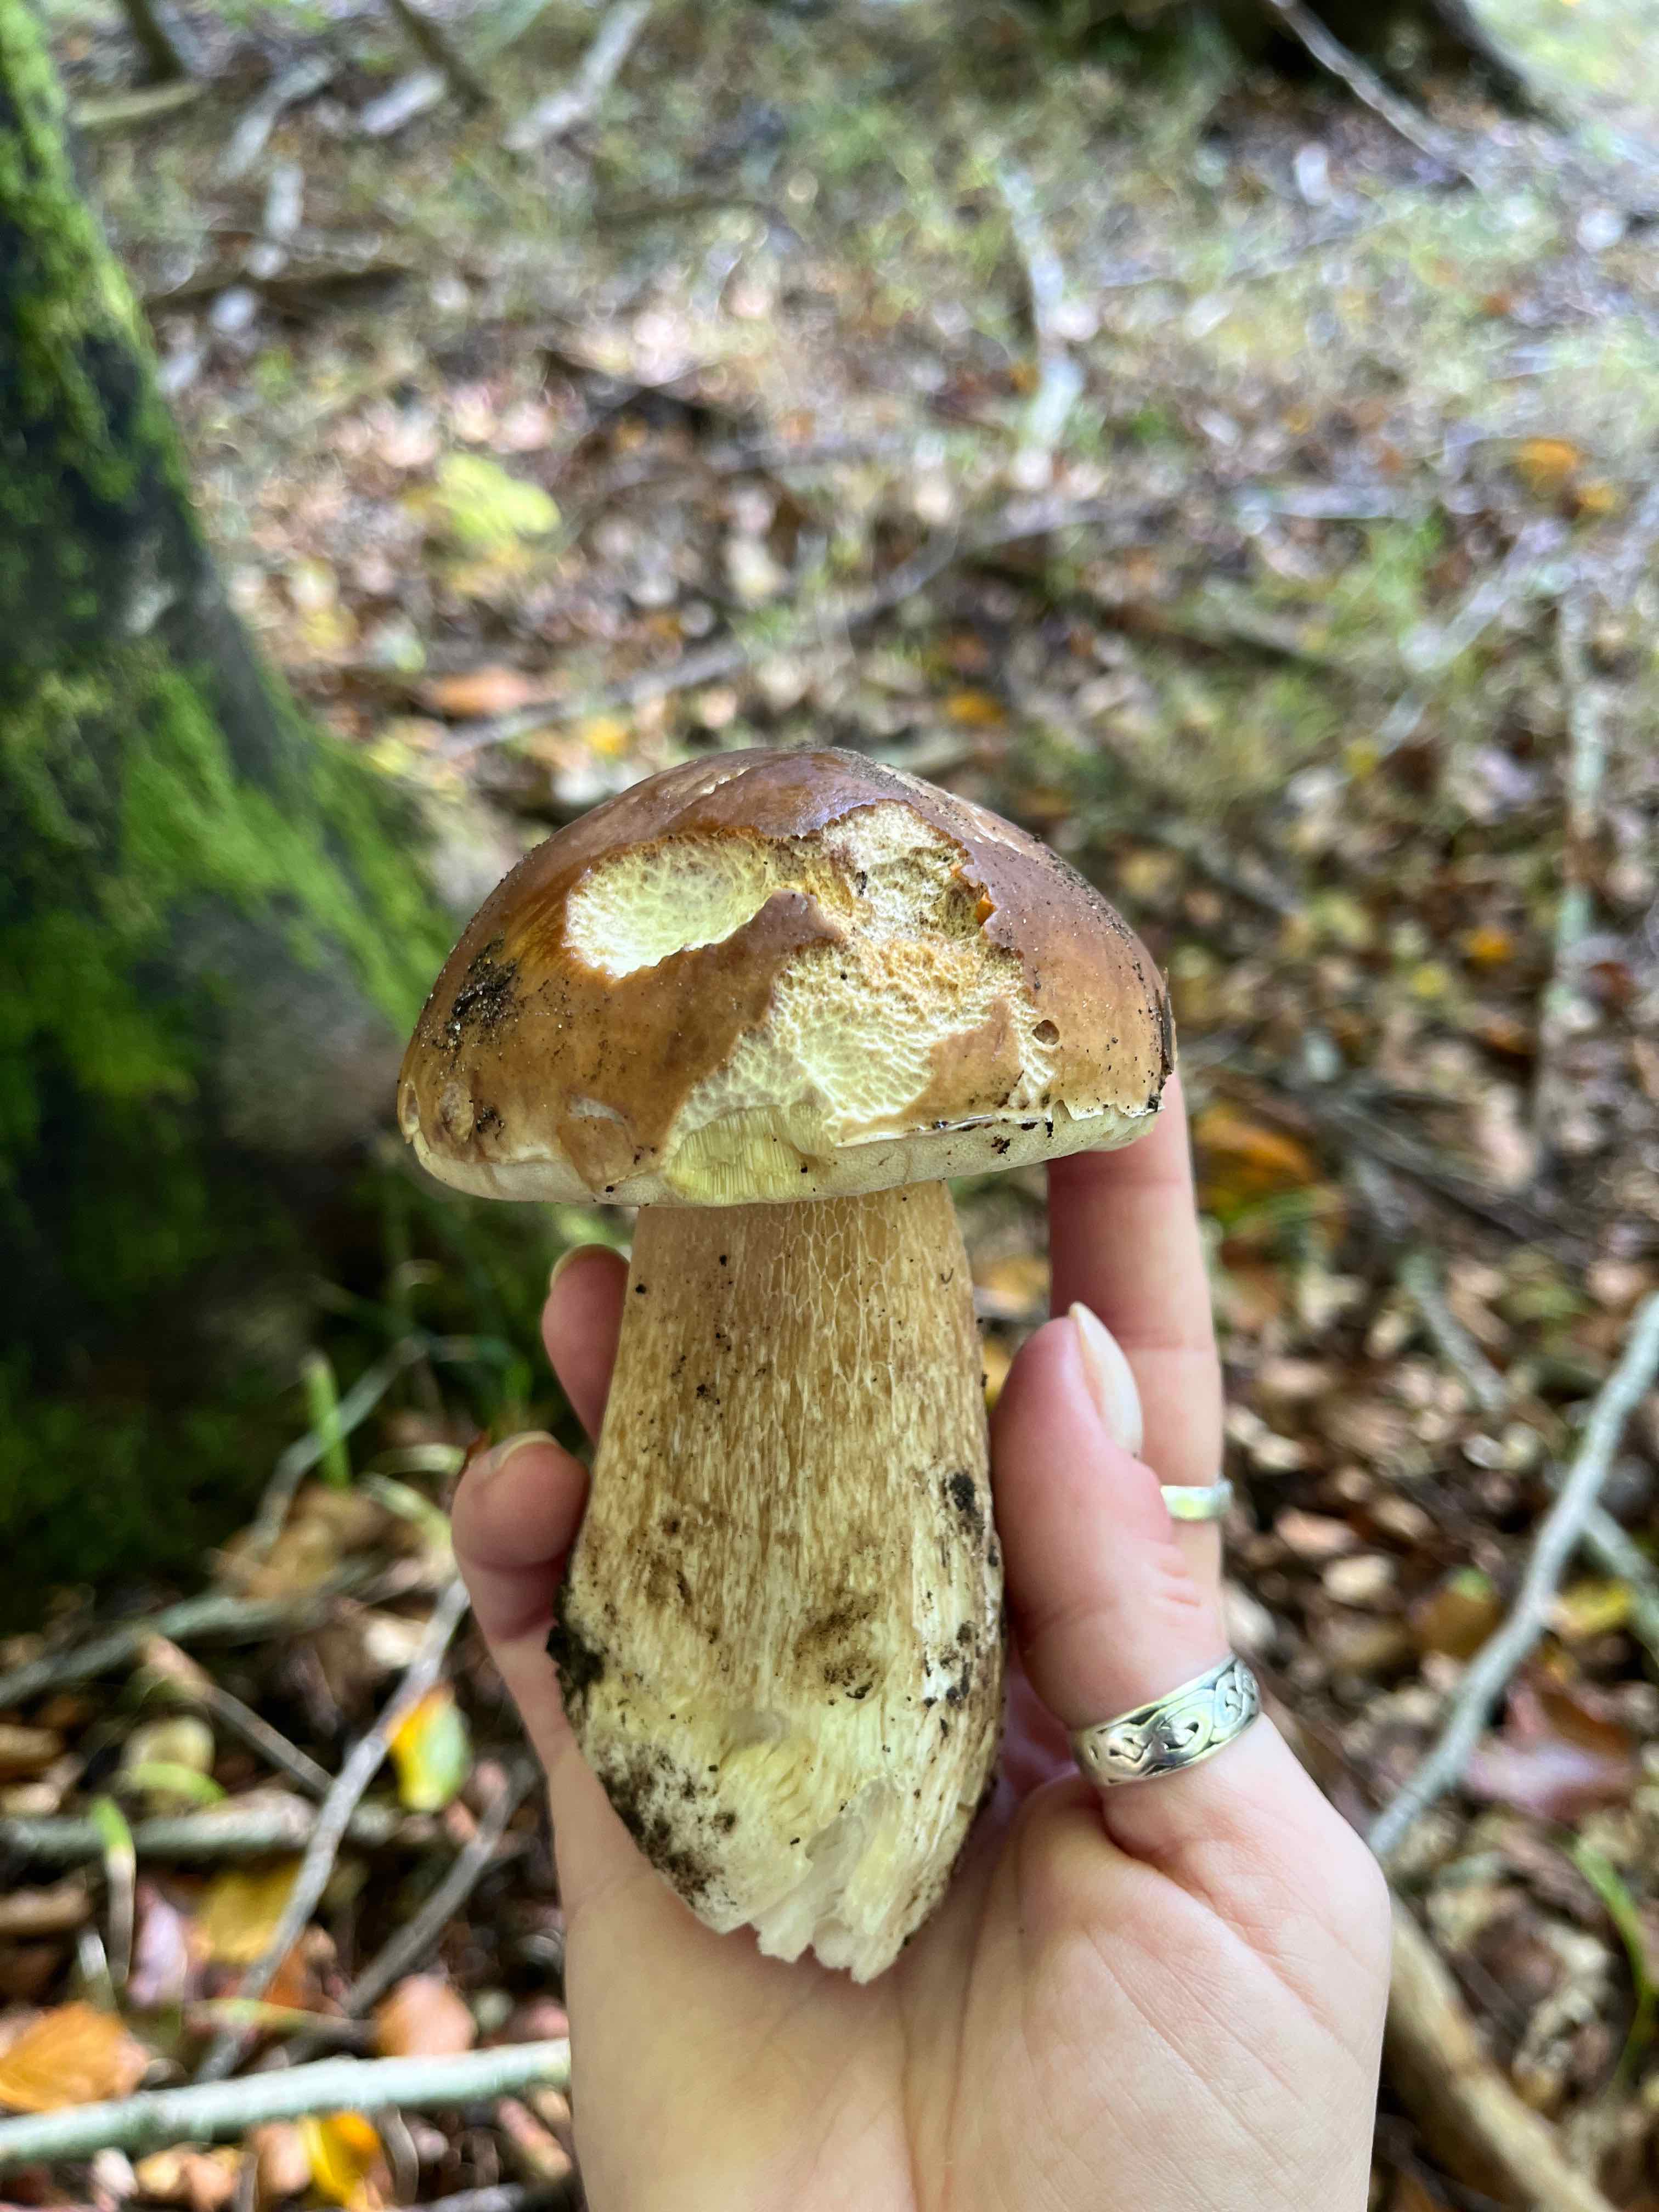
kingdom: Fungi
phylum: Basidiomycota
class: Agaricomycetes
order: Boletales
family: Boletaceae
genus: Boletus
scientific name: Boletus edulis
